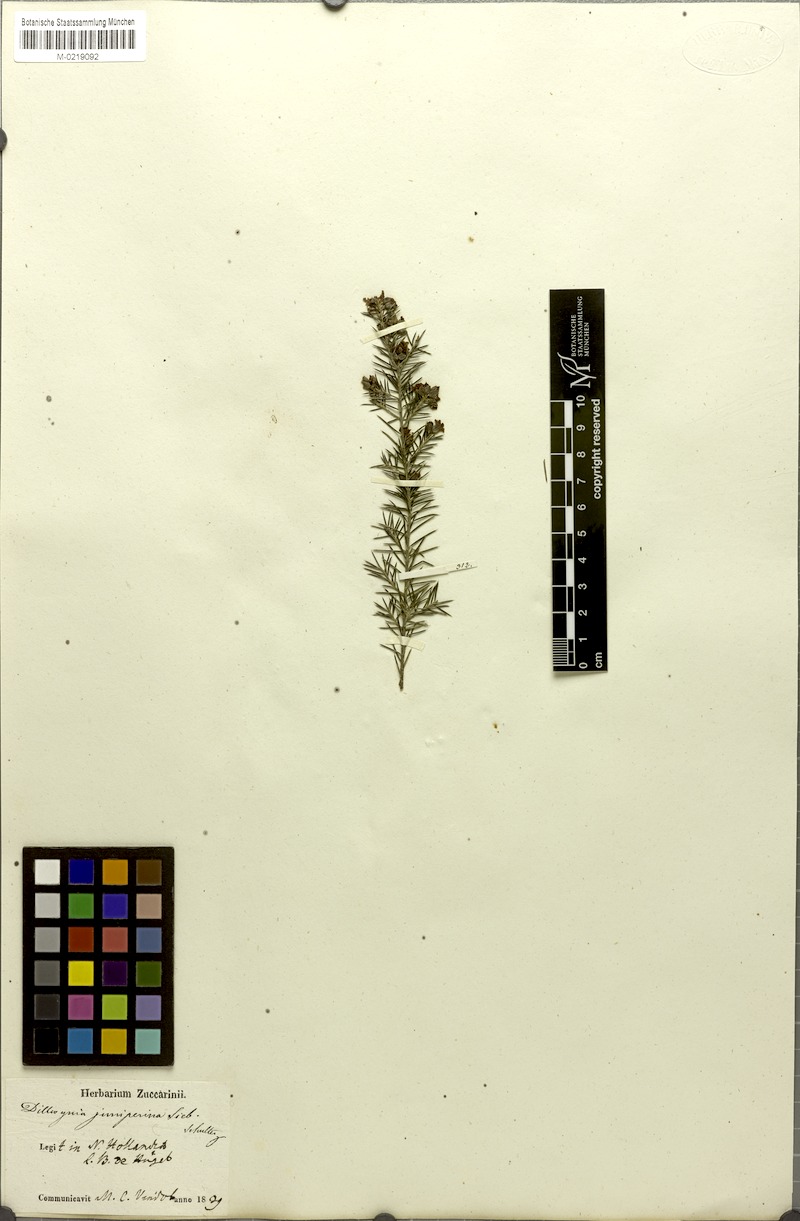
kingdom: Plantae
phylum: Tracheophyta
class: Magnoliopsida
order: Fabales
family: Fabaceae
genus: Dillwynia
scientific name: Dillwynia juniperina
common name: Prickly parrot pea
